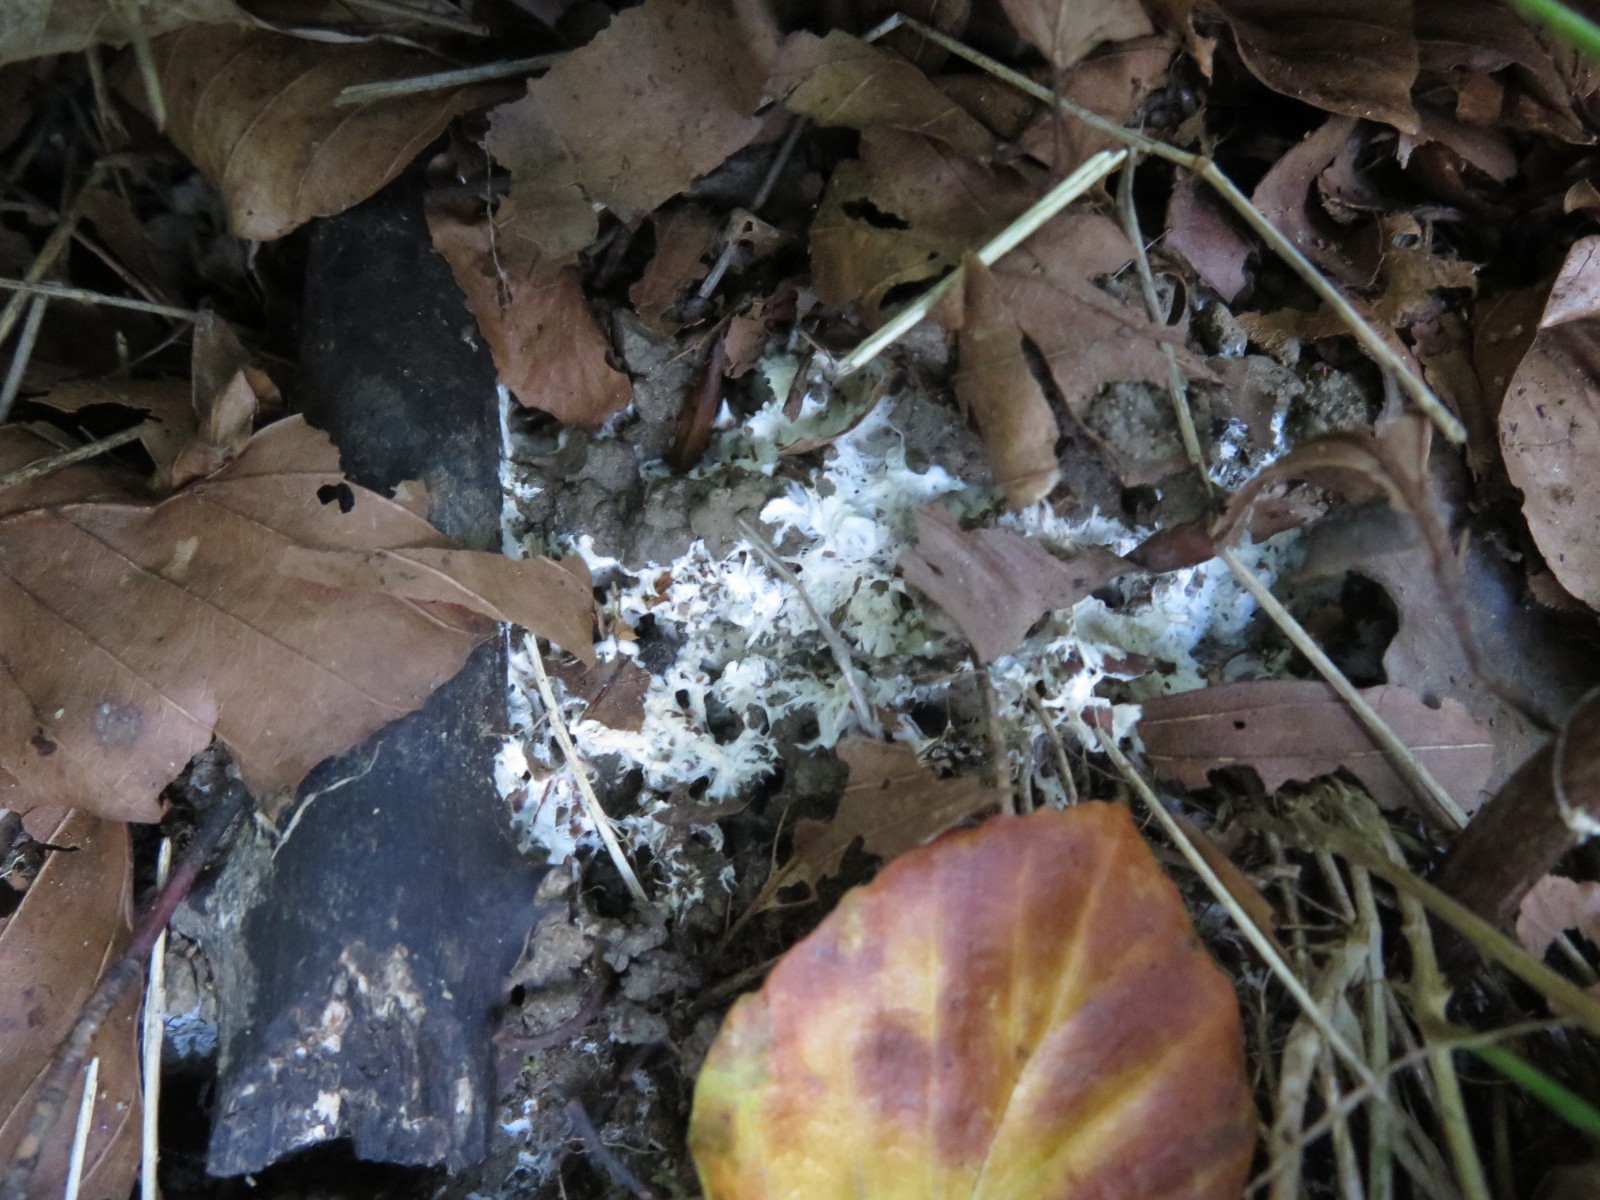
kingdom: Fungi
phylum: Basidiomycota
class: Agaricomycetes
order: Trechisporales
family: Sistotremataceae
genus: Trechispora
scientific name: Trechispora fastidiosa
